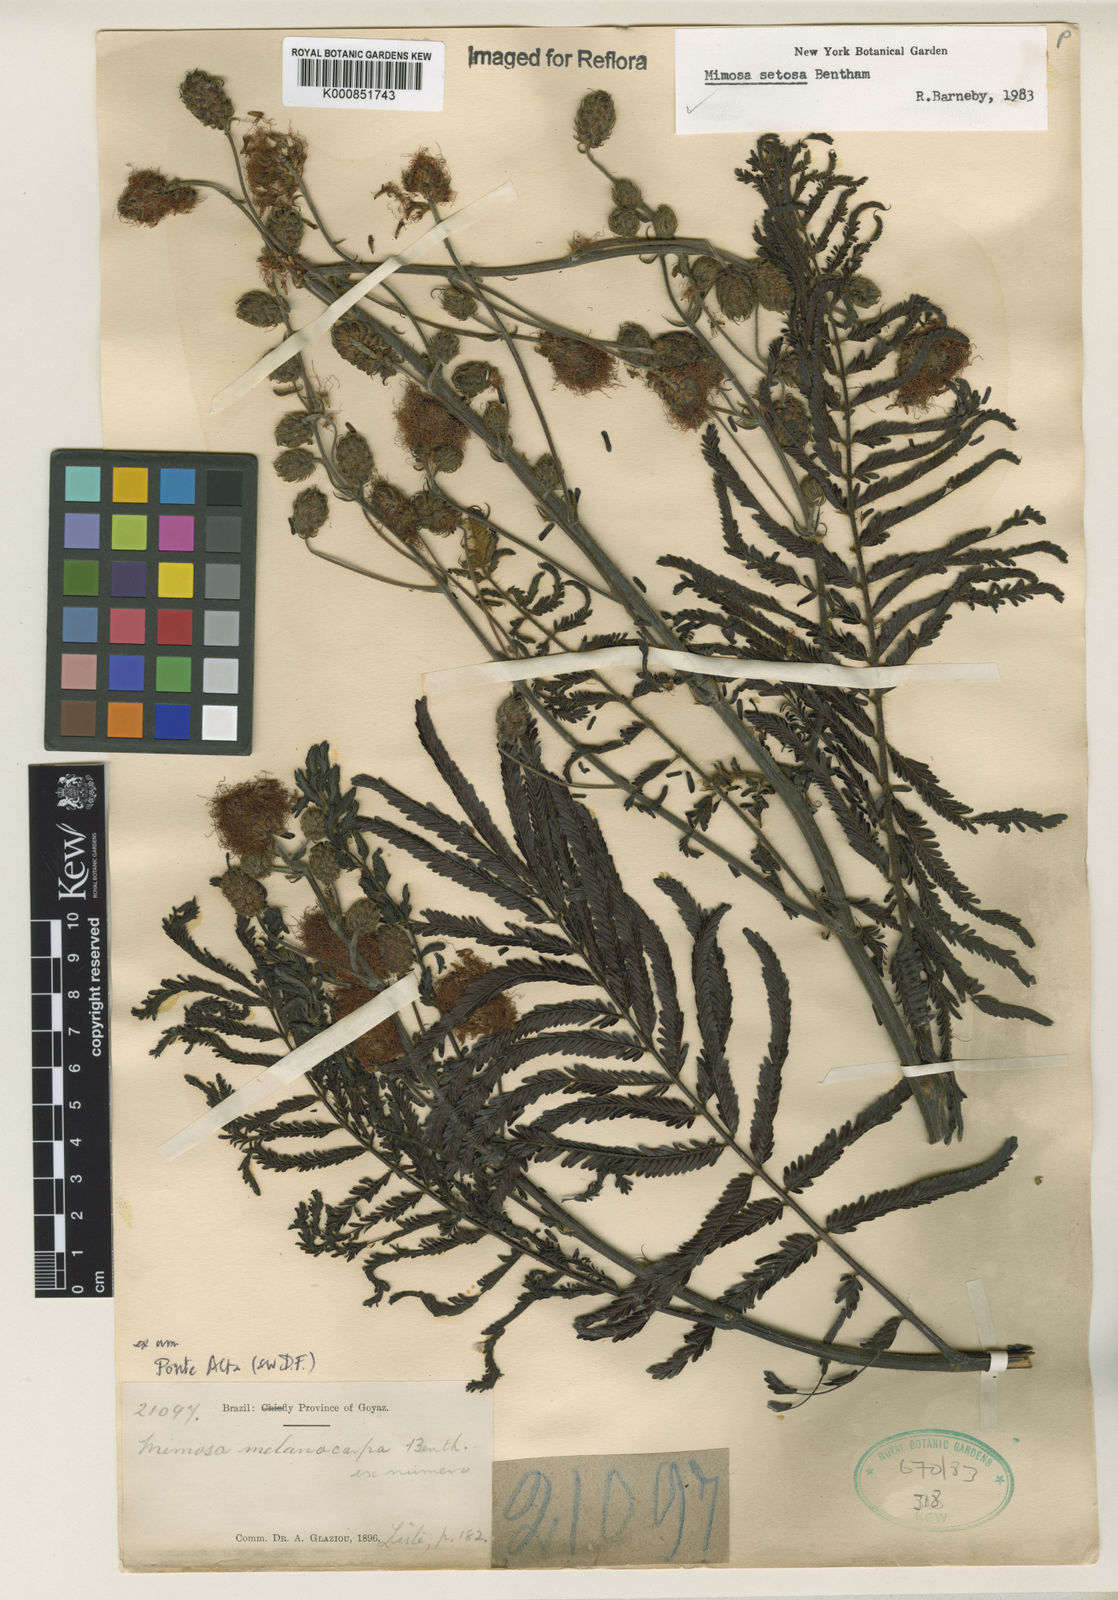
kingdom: Plantae
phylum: Tracheophyta
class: Magnoliopsida
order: Fabales
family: Fabaceae
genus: Mimosa
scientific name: Mimosa setosa
